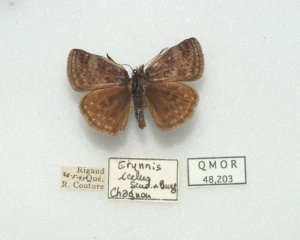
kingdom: Animalia
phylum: Arthropoda
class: Insecta
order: Lepidoptera
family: Hesperiidae
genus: Erynnis
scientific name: Erynnis icelus
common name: Dreamy Duskywing
